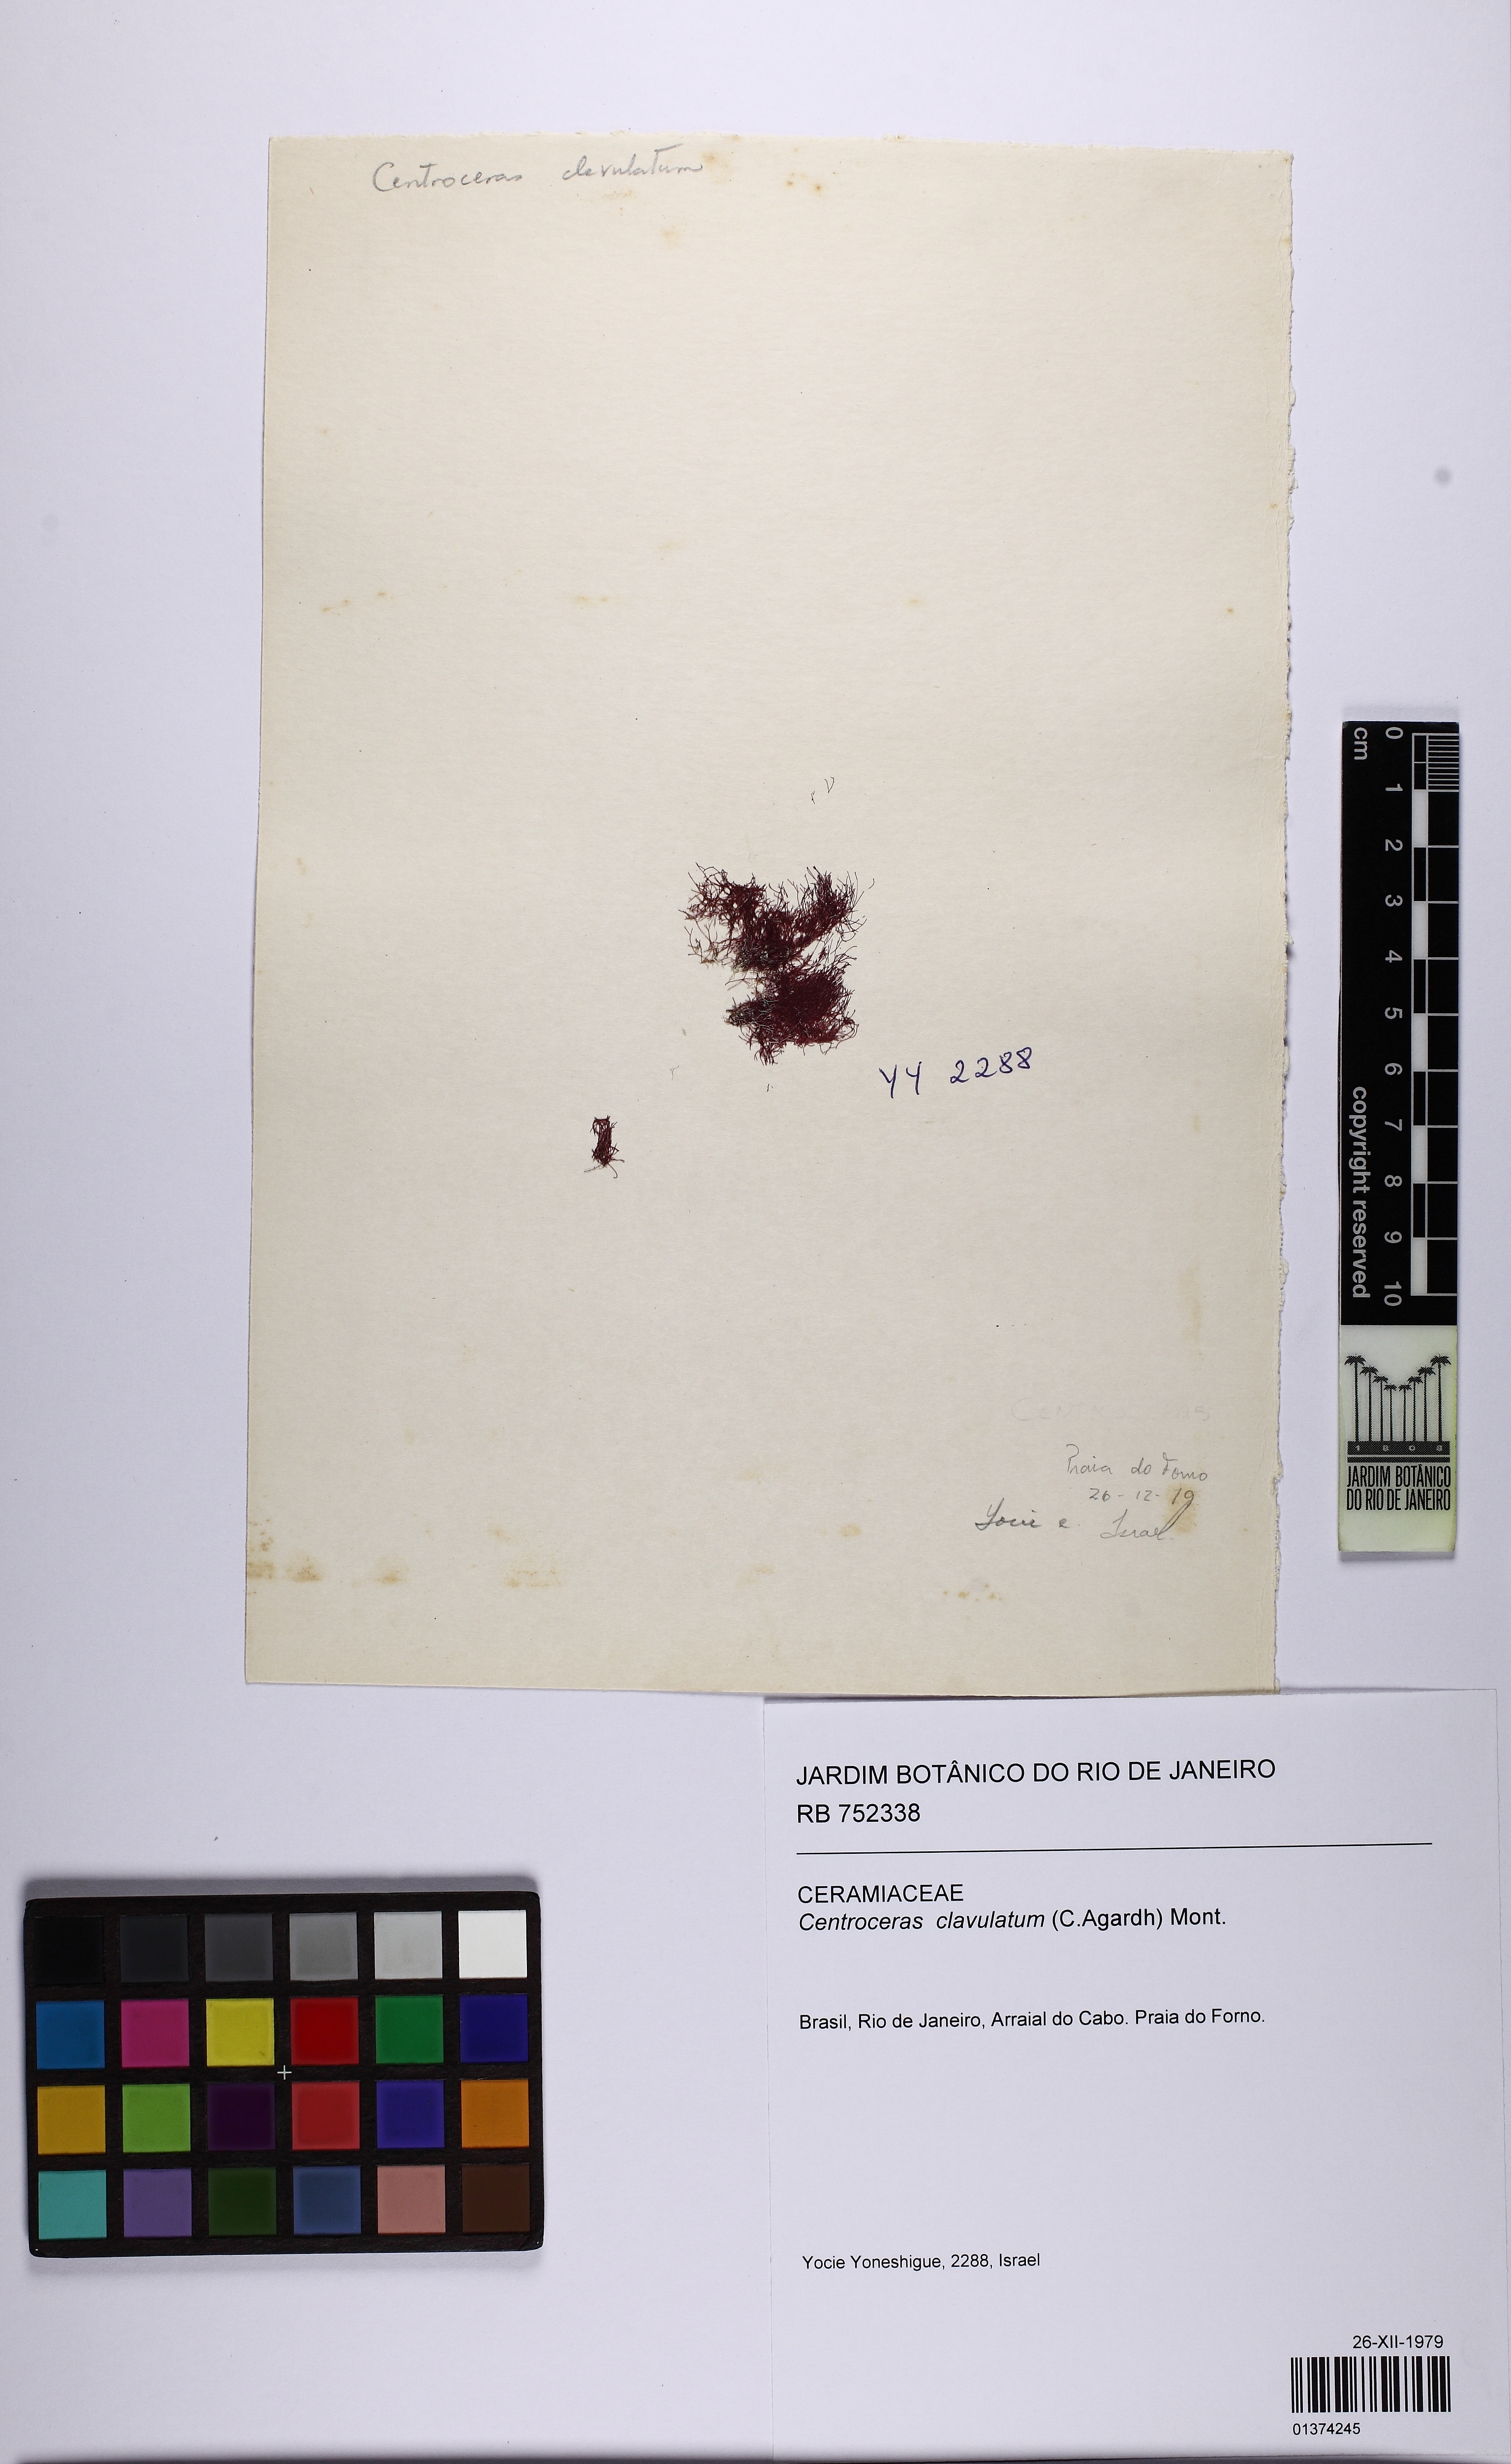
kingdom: Plantae
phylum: Rhodophyta
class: Florideophyceae
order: Ceramiales
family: Ceramiaceae
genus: Centroceras
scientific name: Centroceras clavulatum
